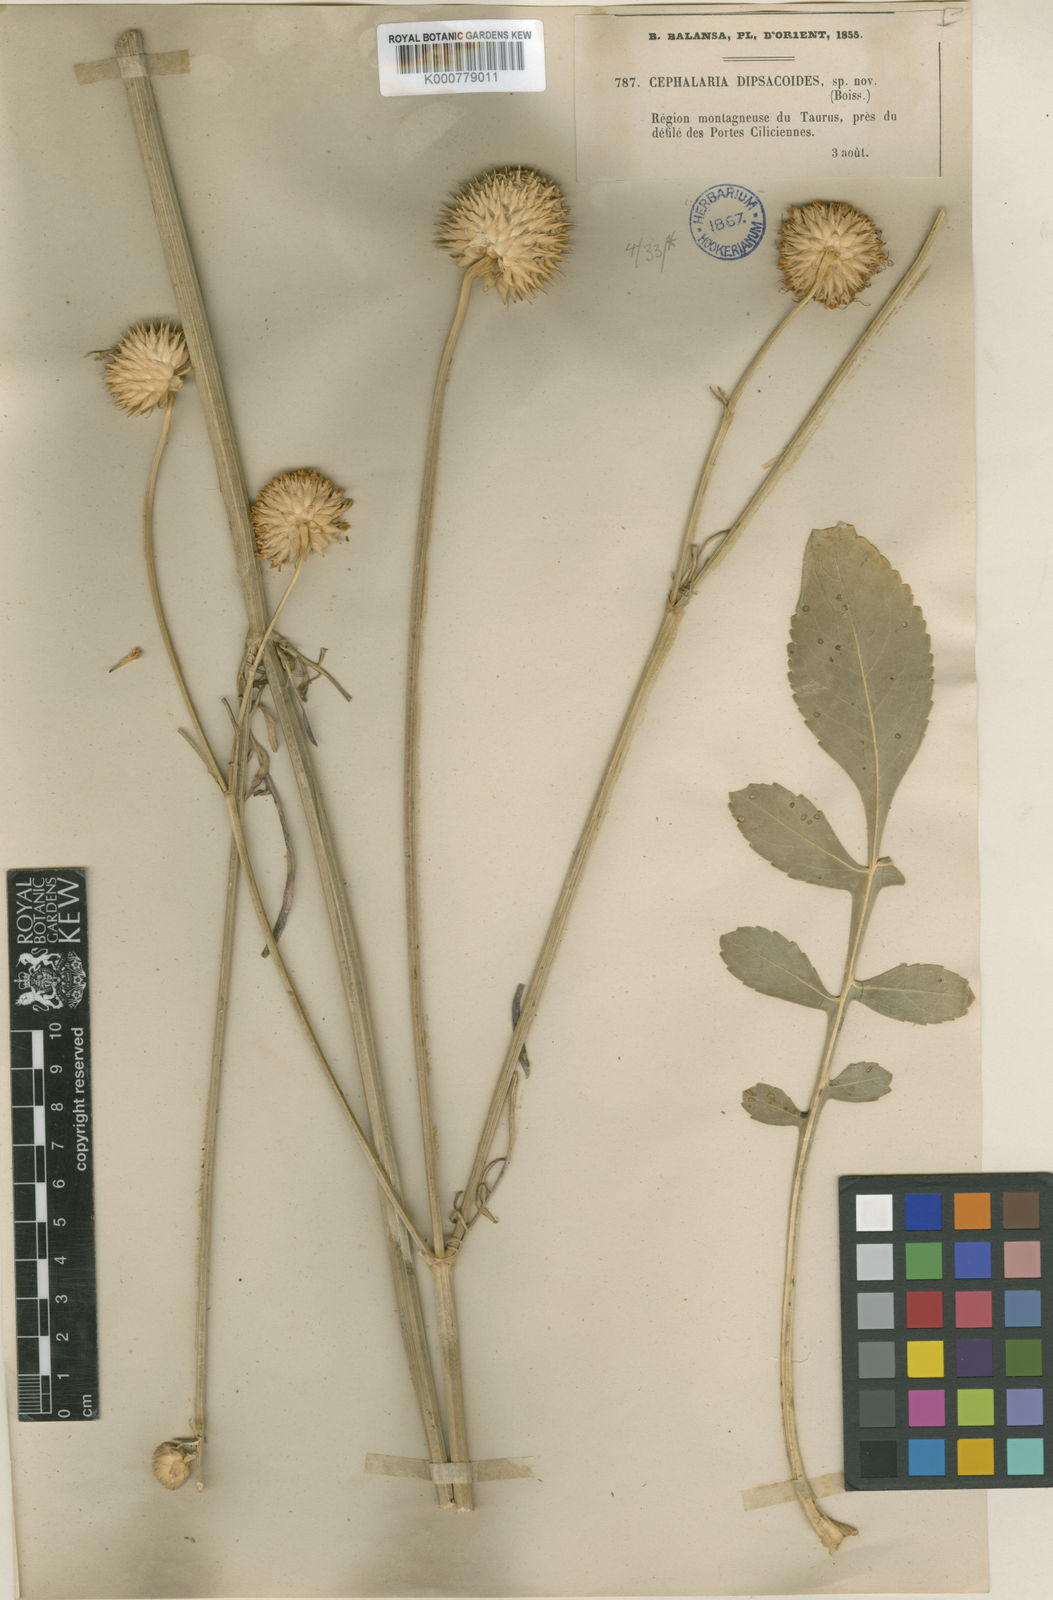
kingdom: Plantae
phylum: Tracheophyta
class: Magnoliopsida
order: Dipsacales
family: Caprifoliaceae
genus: Cephalaria
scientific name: Cephalaria balansae
